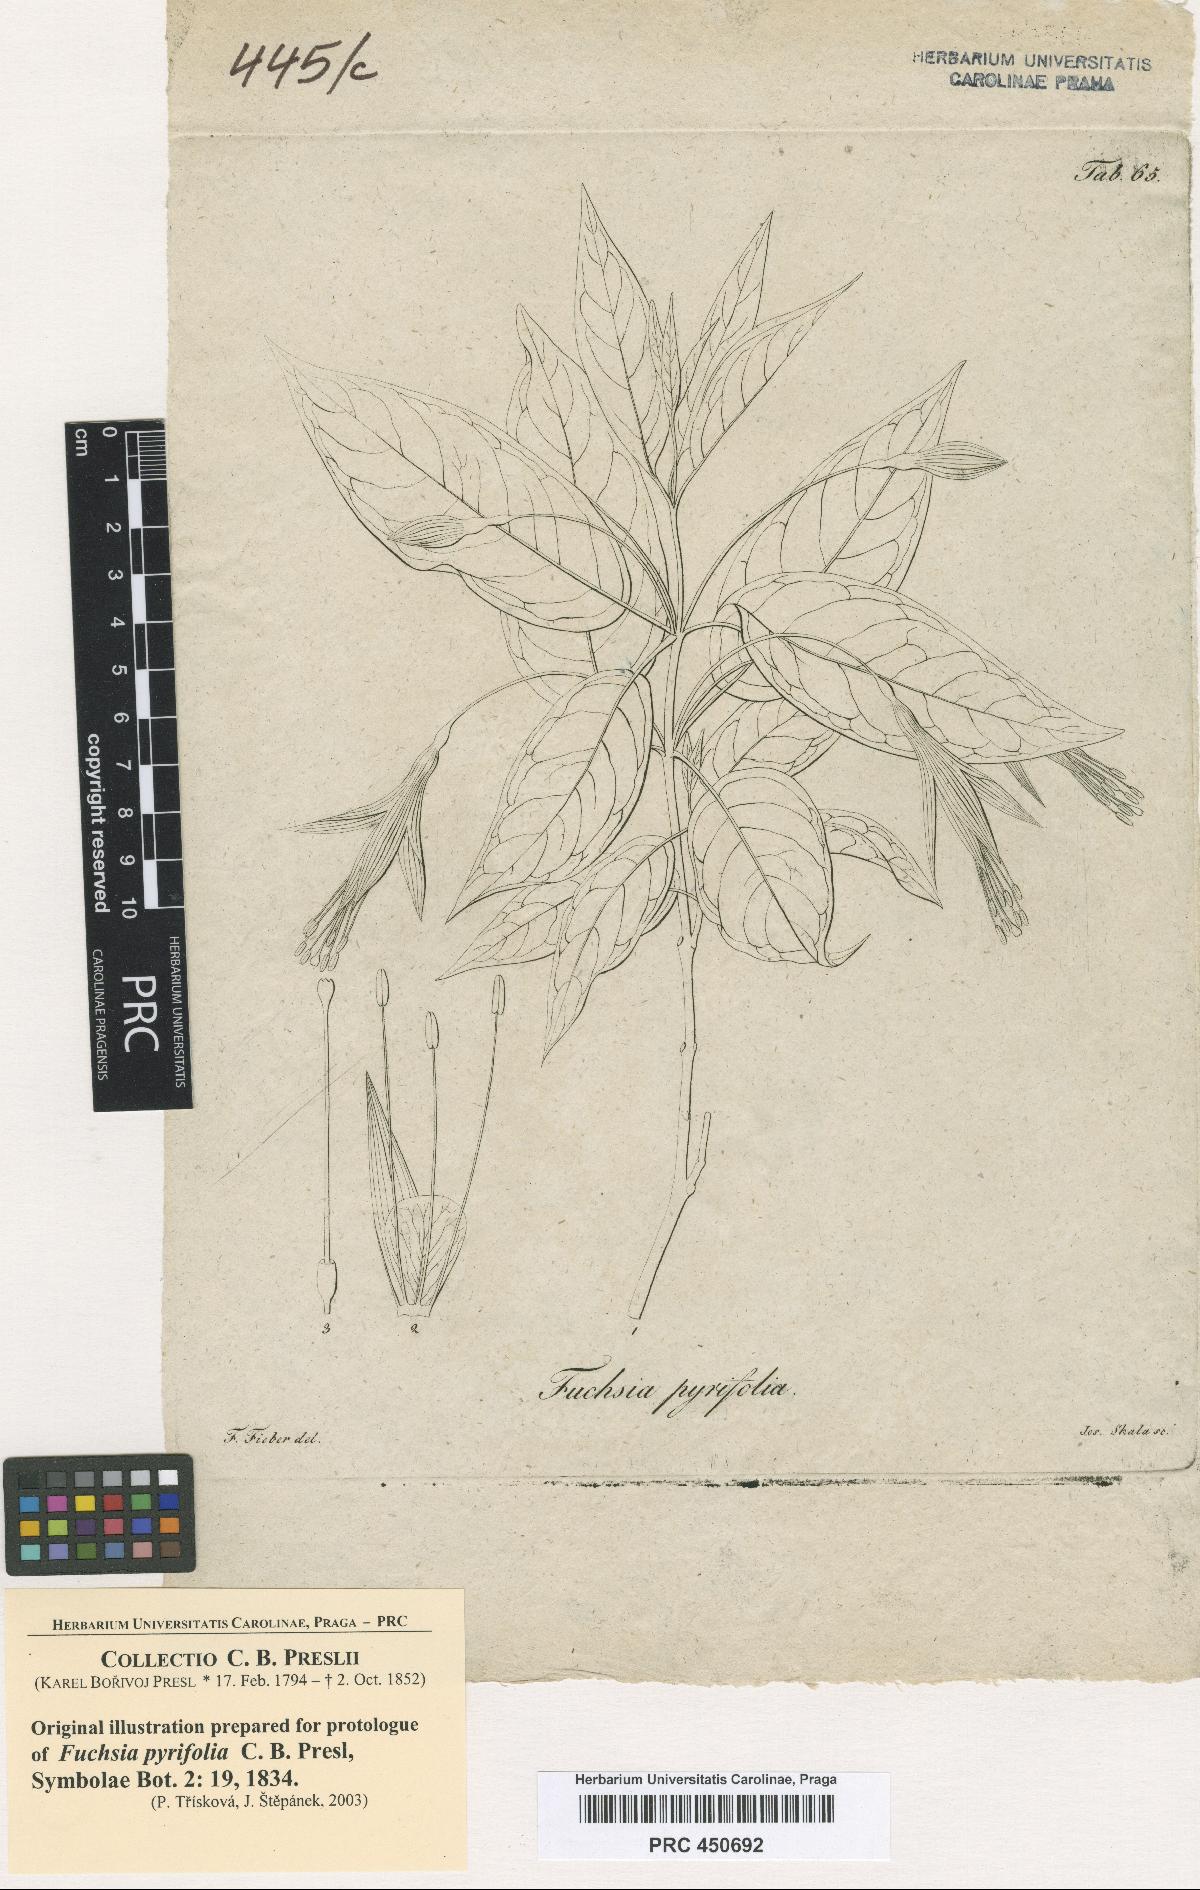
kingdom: Plantae
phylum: Tracheophyta
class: Magnoliopsida
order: Myrtales
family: Onagraceae
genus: Fuchsia
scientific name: Fuchsia regia
